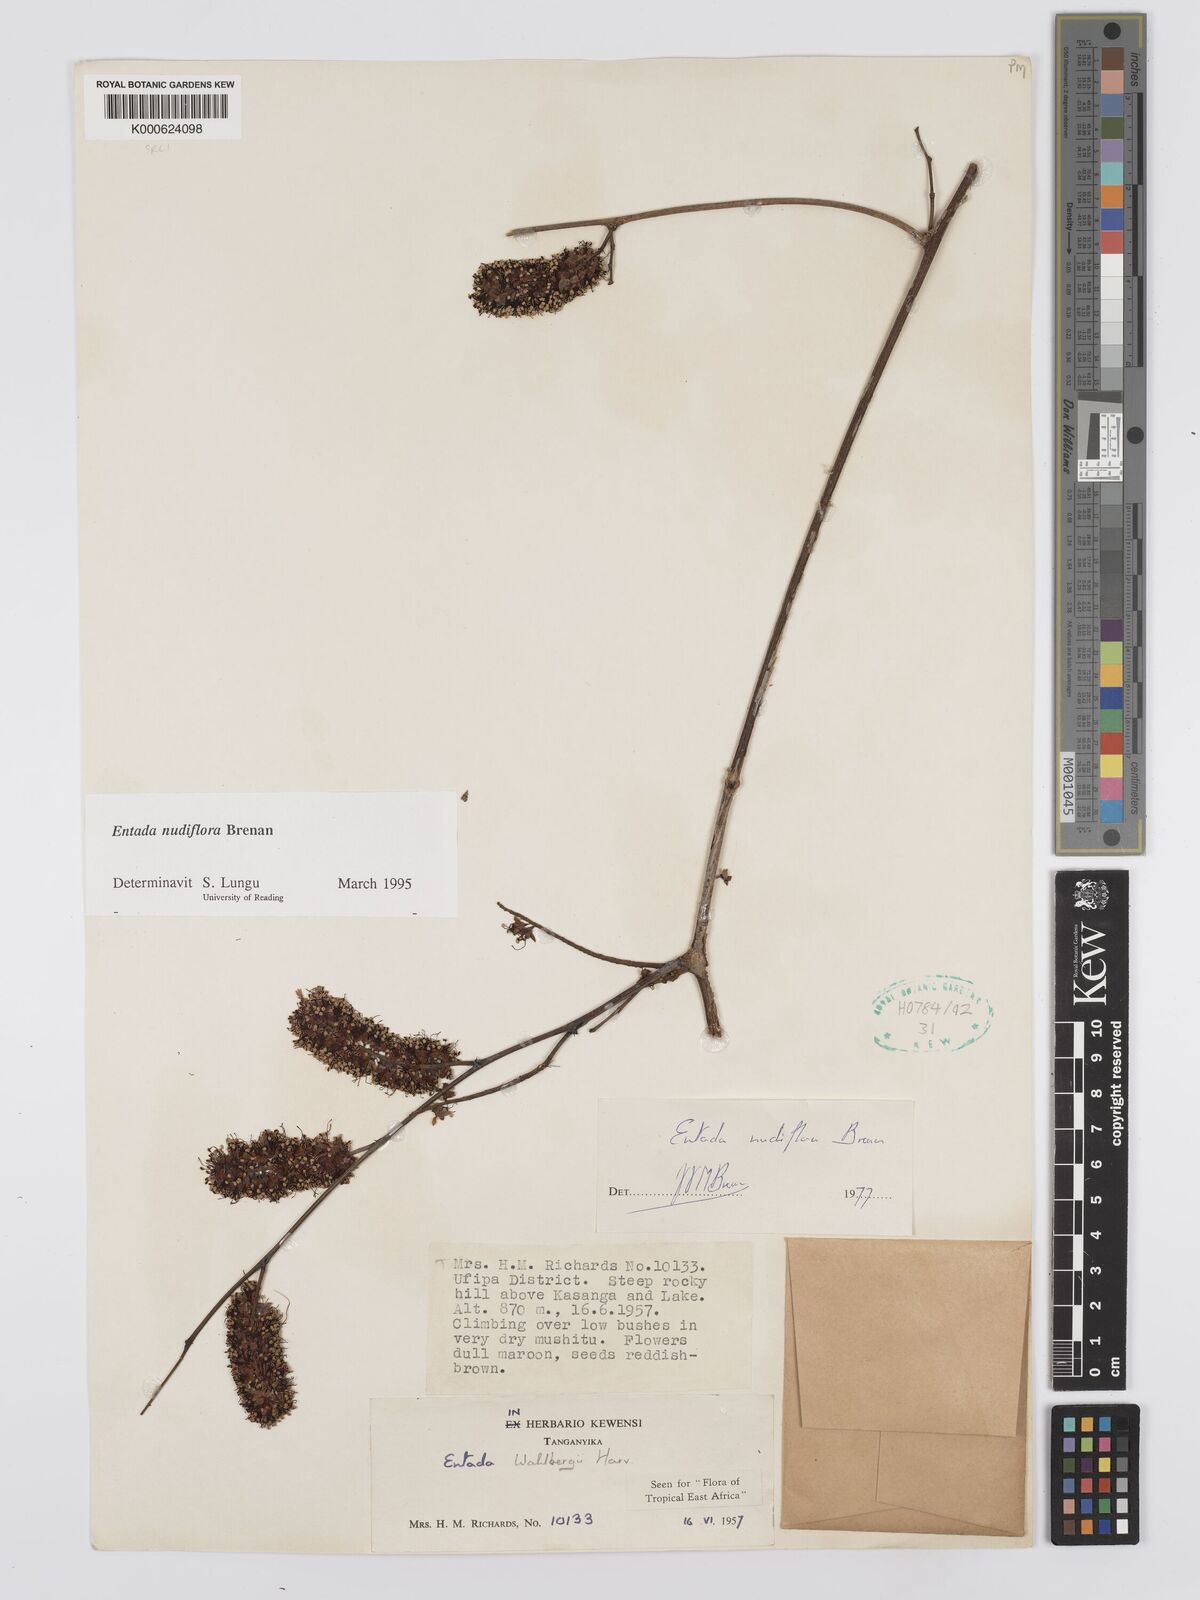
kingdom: Plantae
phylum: Tracheophyta
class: Magnoliopsida
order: Fabales
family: Fabaceae
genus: Entada
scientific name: Entada nudiflora
